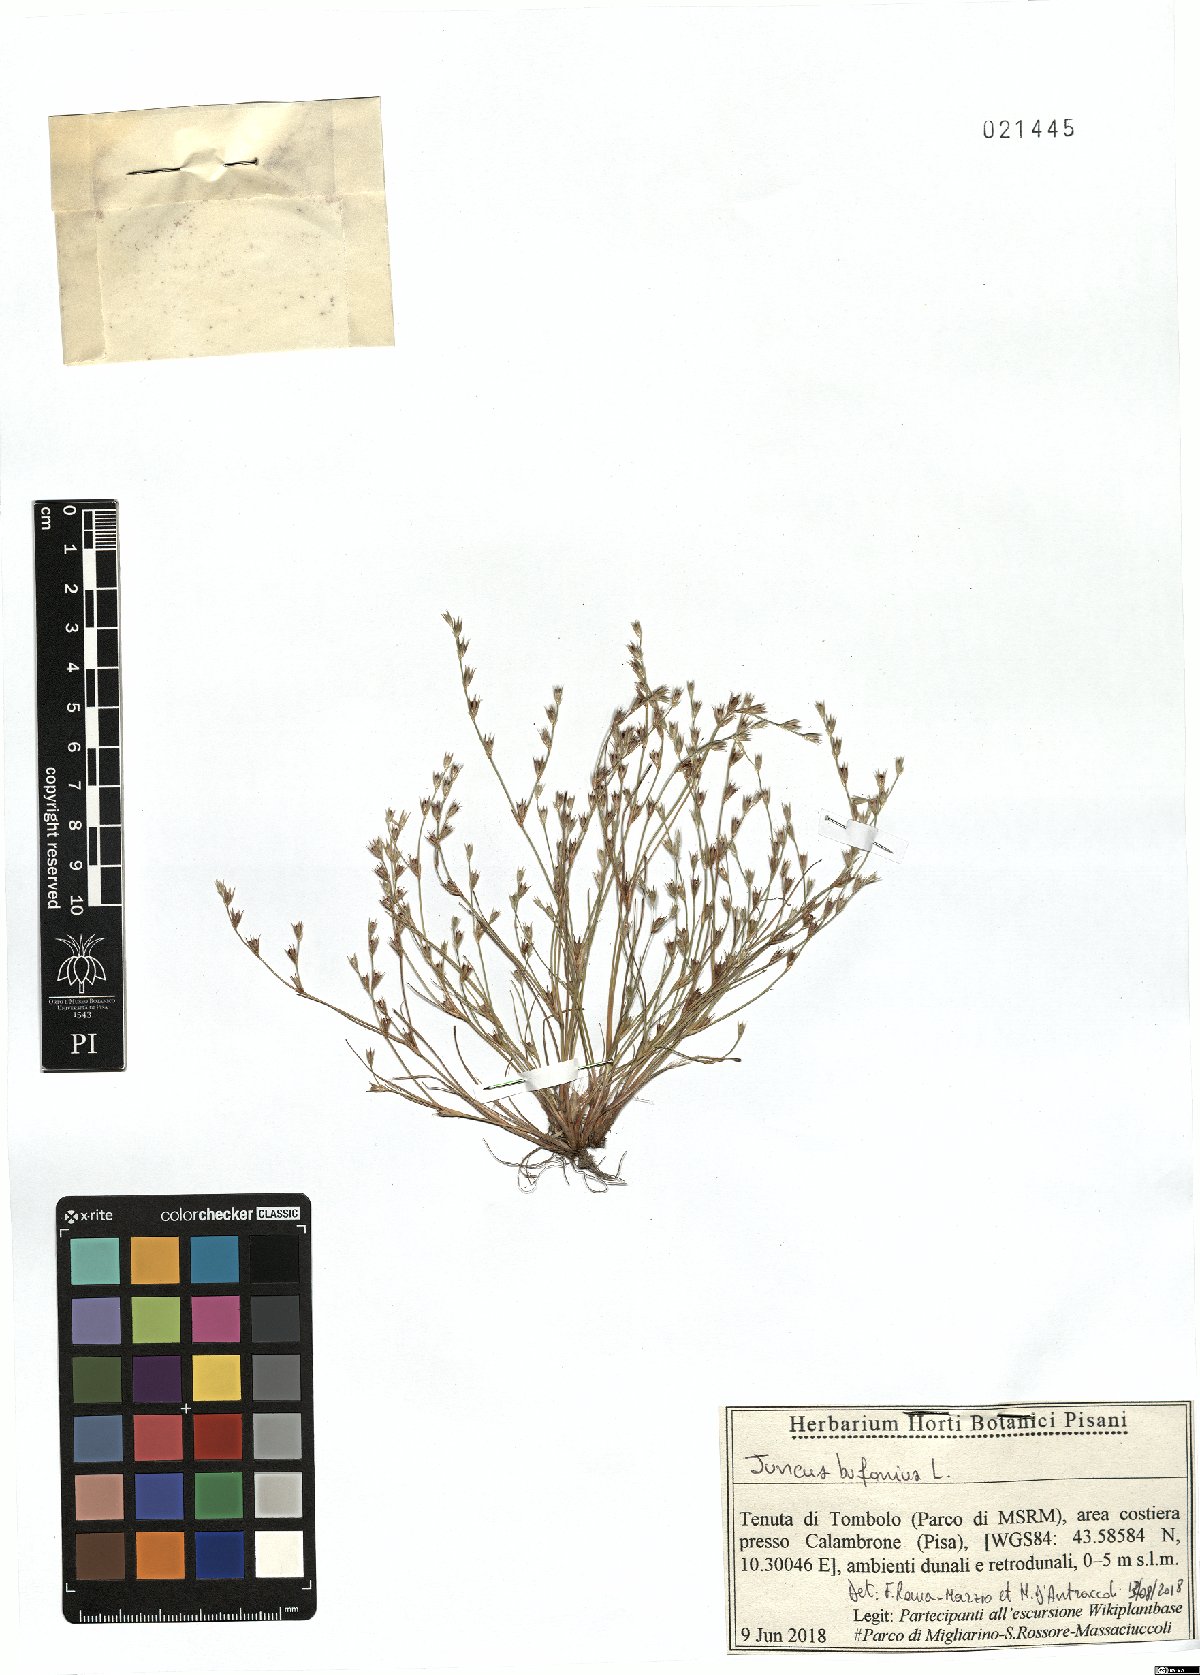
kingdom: Plantae
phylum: Tracheophyta
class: Liliopsida
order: Poales
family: Juncaceae
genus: Juncus
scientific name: Juncus bufonius
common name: Toad rush
